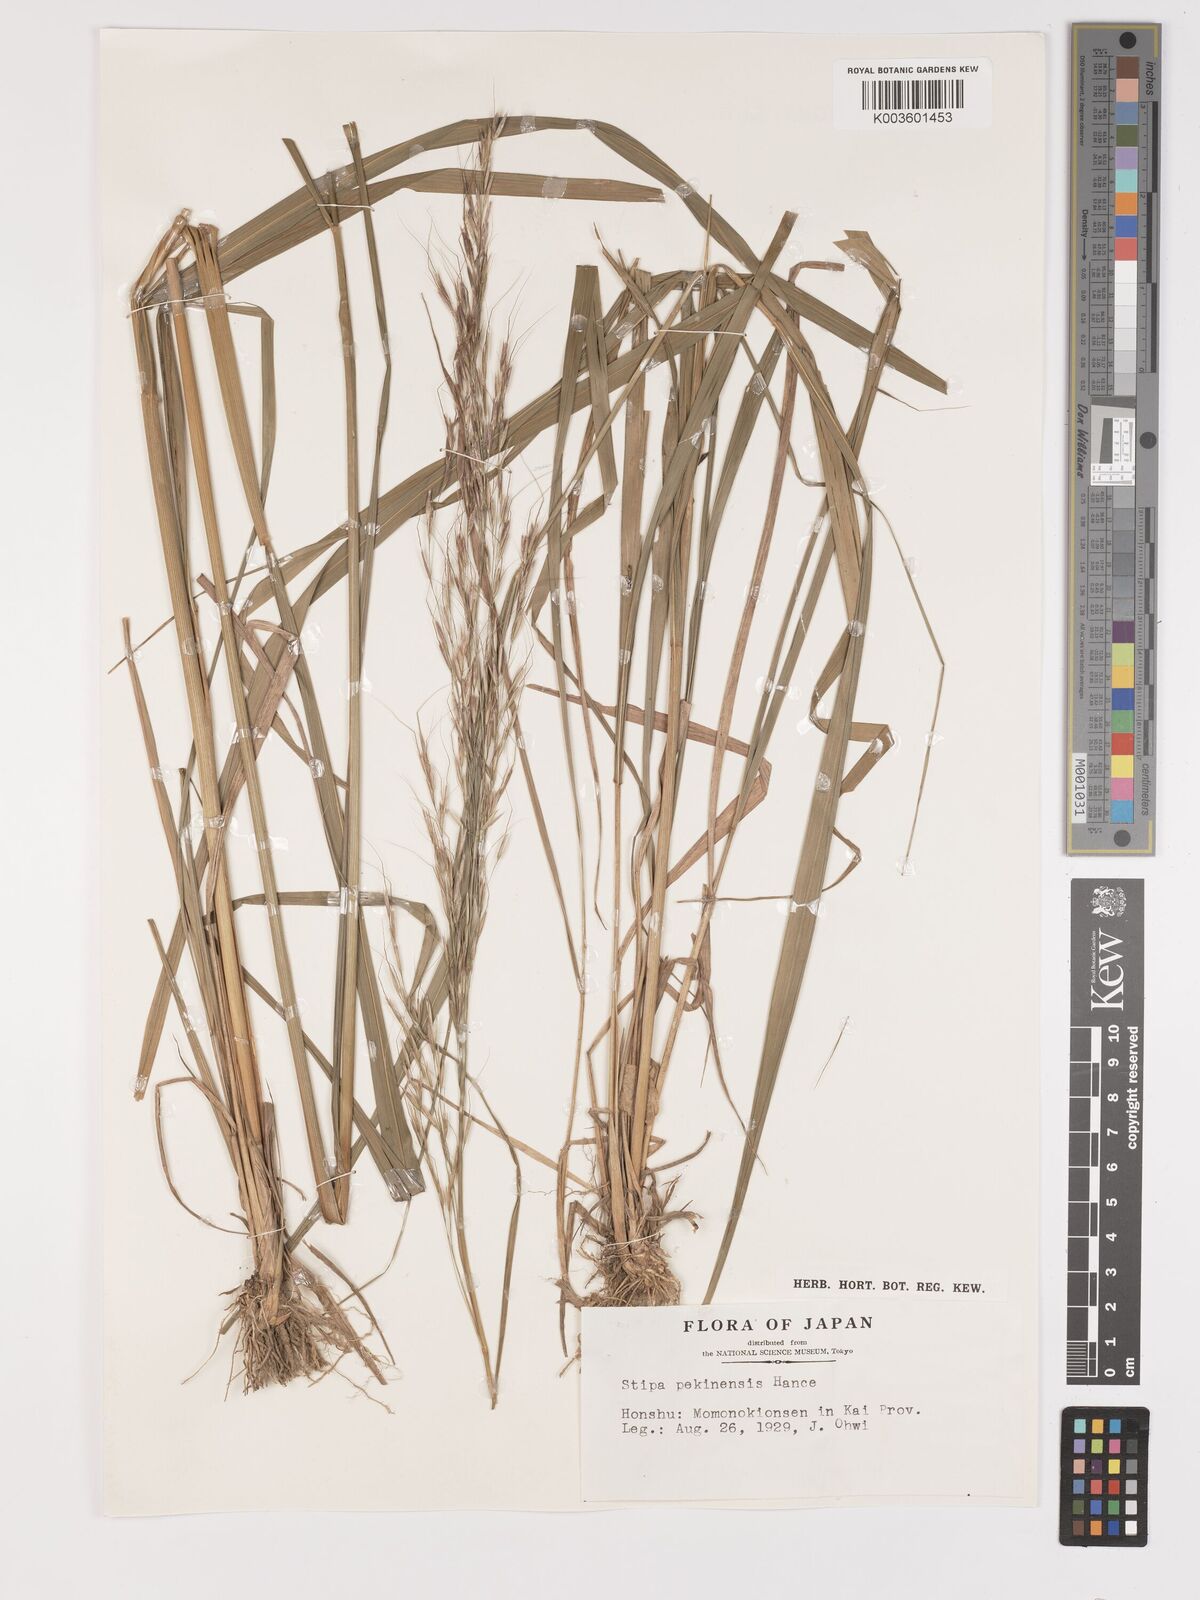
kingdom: Plantae
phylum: Tracheophyta
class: Liliopsida
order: Poales
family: Poaceae
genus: Achnatherum
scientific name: Achnatherum pekinense
